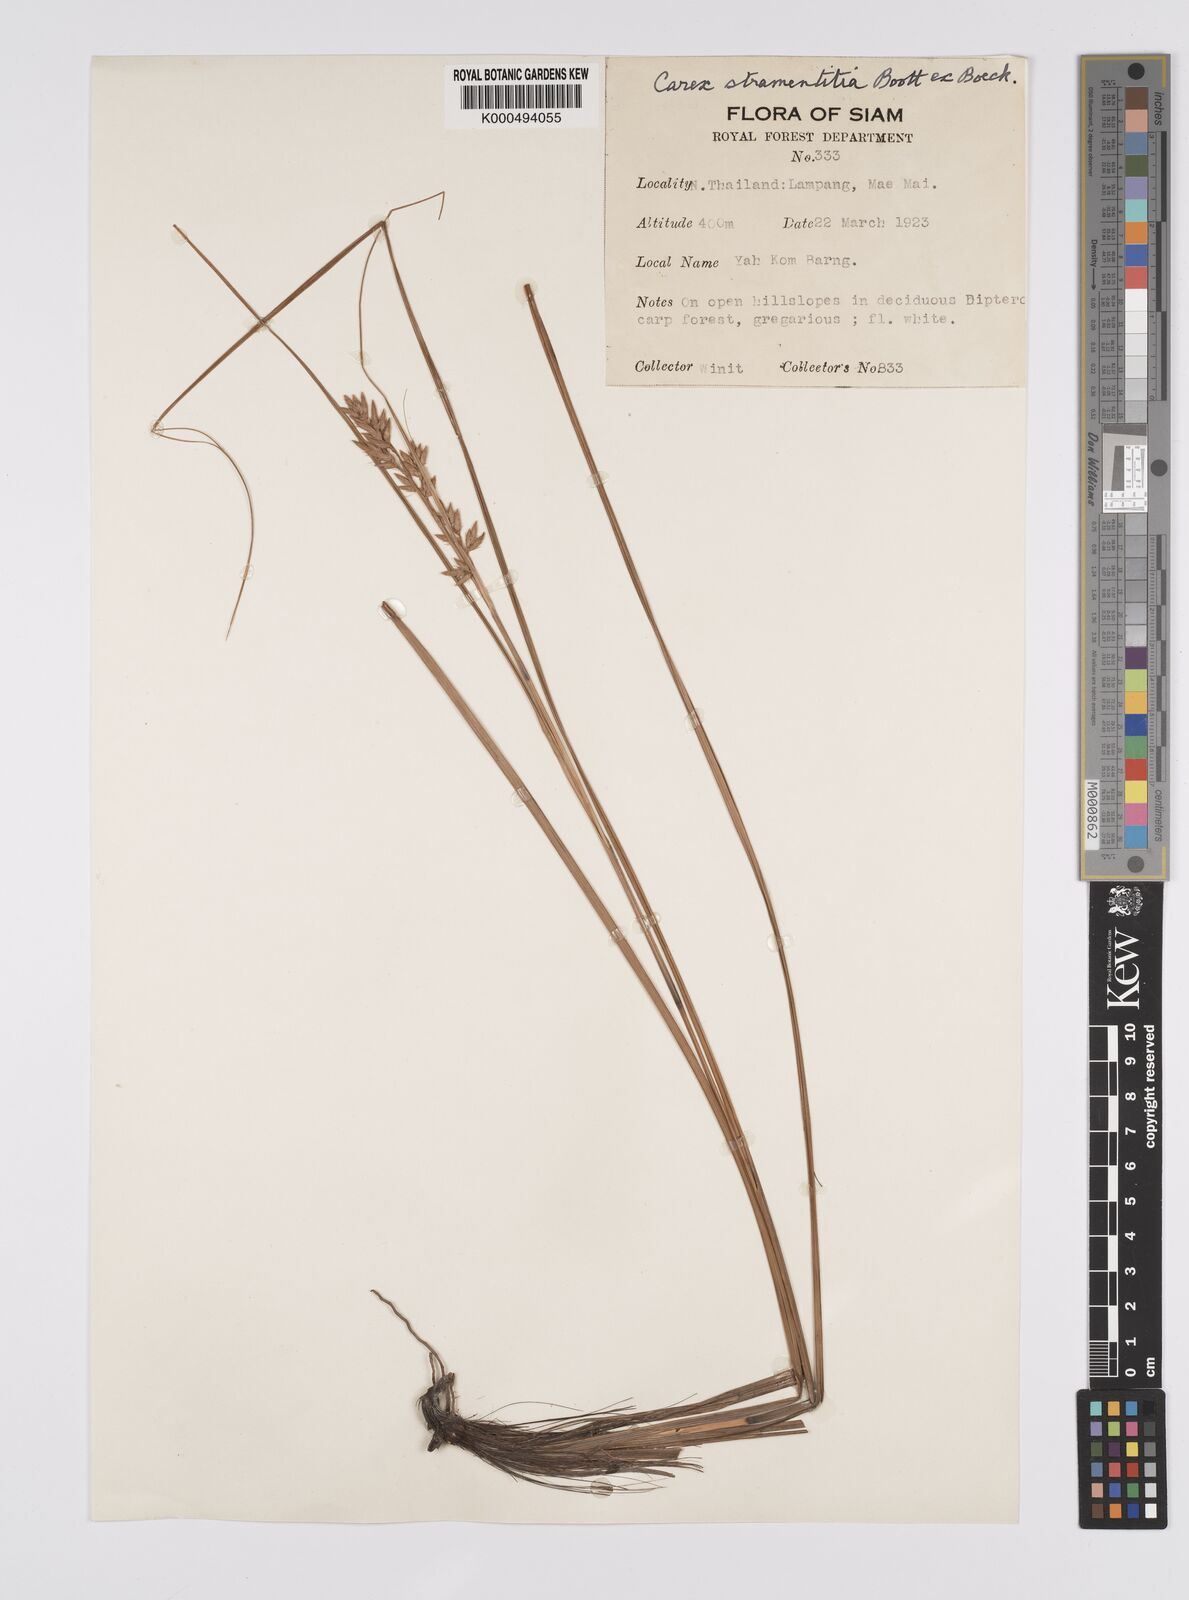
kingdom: Plantae
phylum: Tracheophyta
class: Liliopsida
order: Poales
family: Cyperaceae
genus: Carex
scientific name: Carex stramentitia
